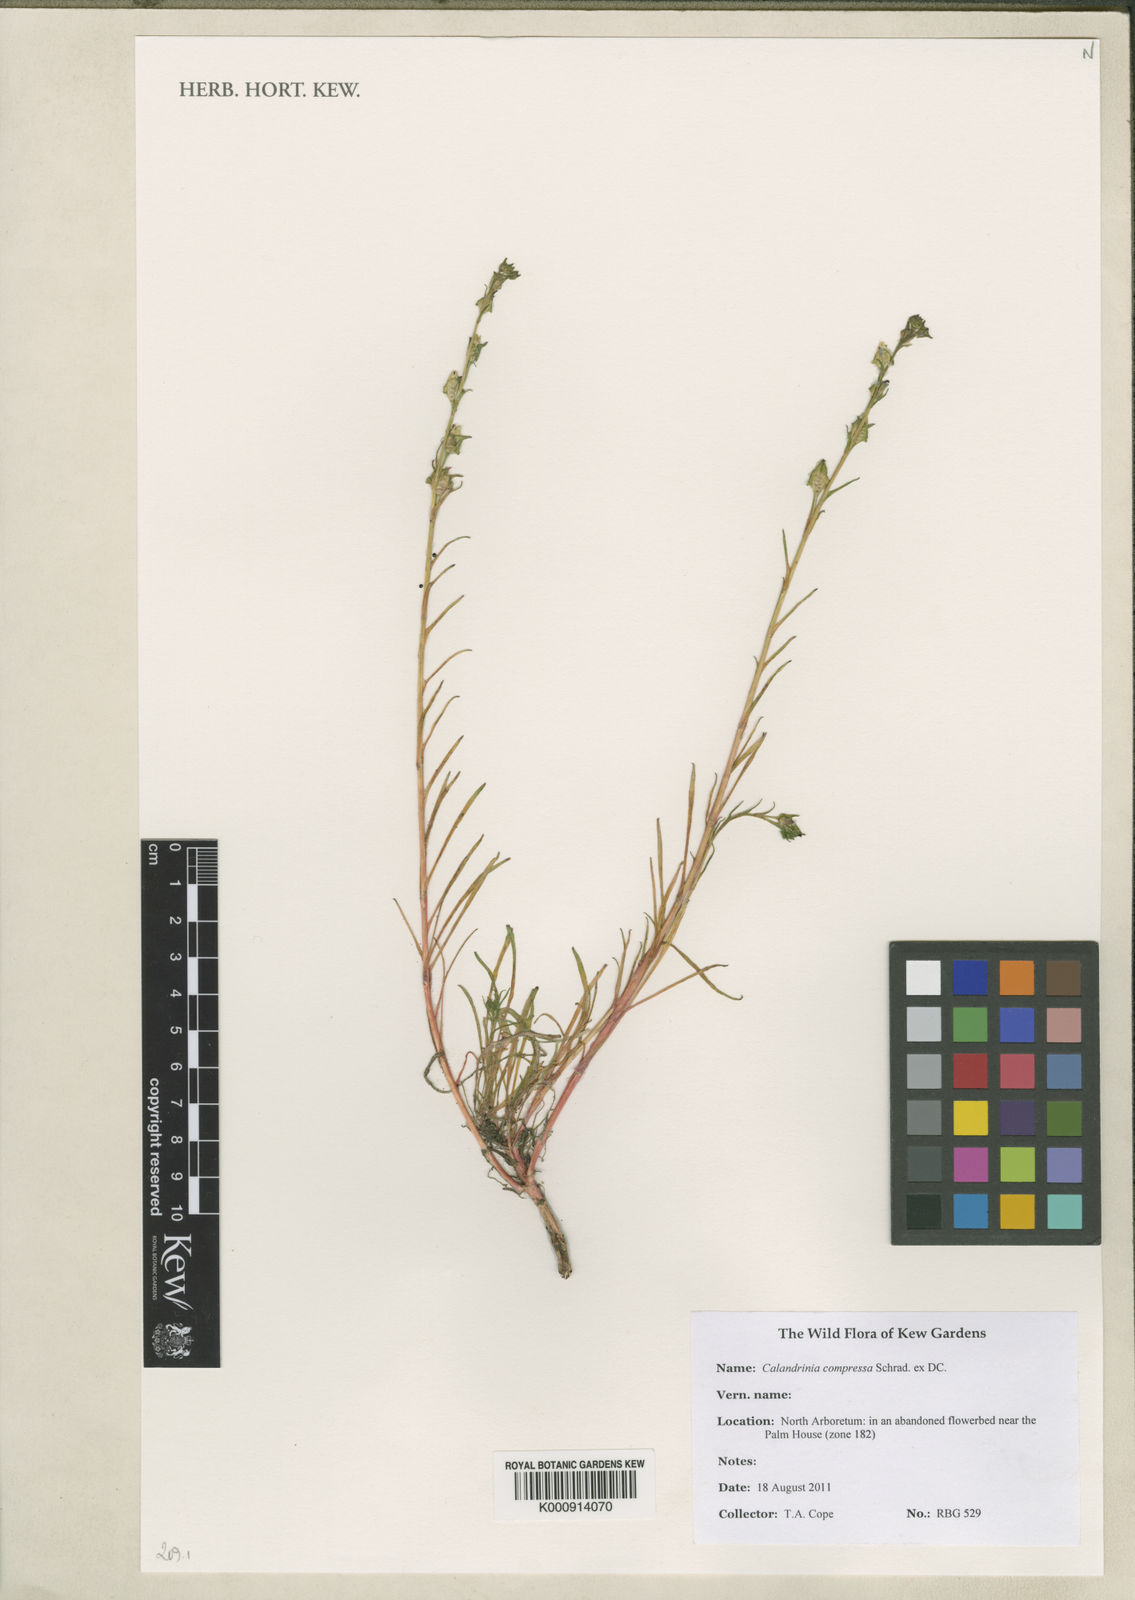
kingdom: Plantae
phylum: Tracheophyta
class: Magnoliopsida
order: Caryophyllales
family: Montiaceae
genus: Calandrinia
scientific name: Calandrinia pilosiuscula
